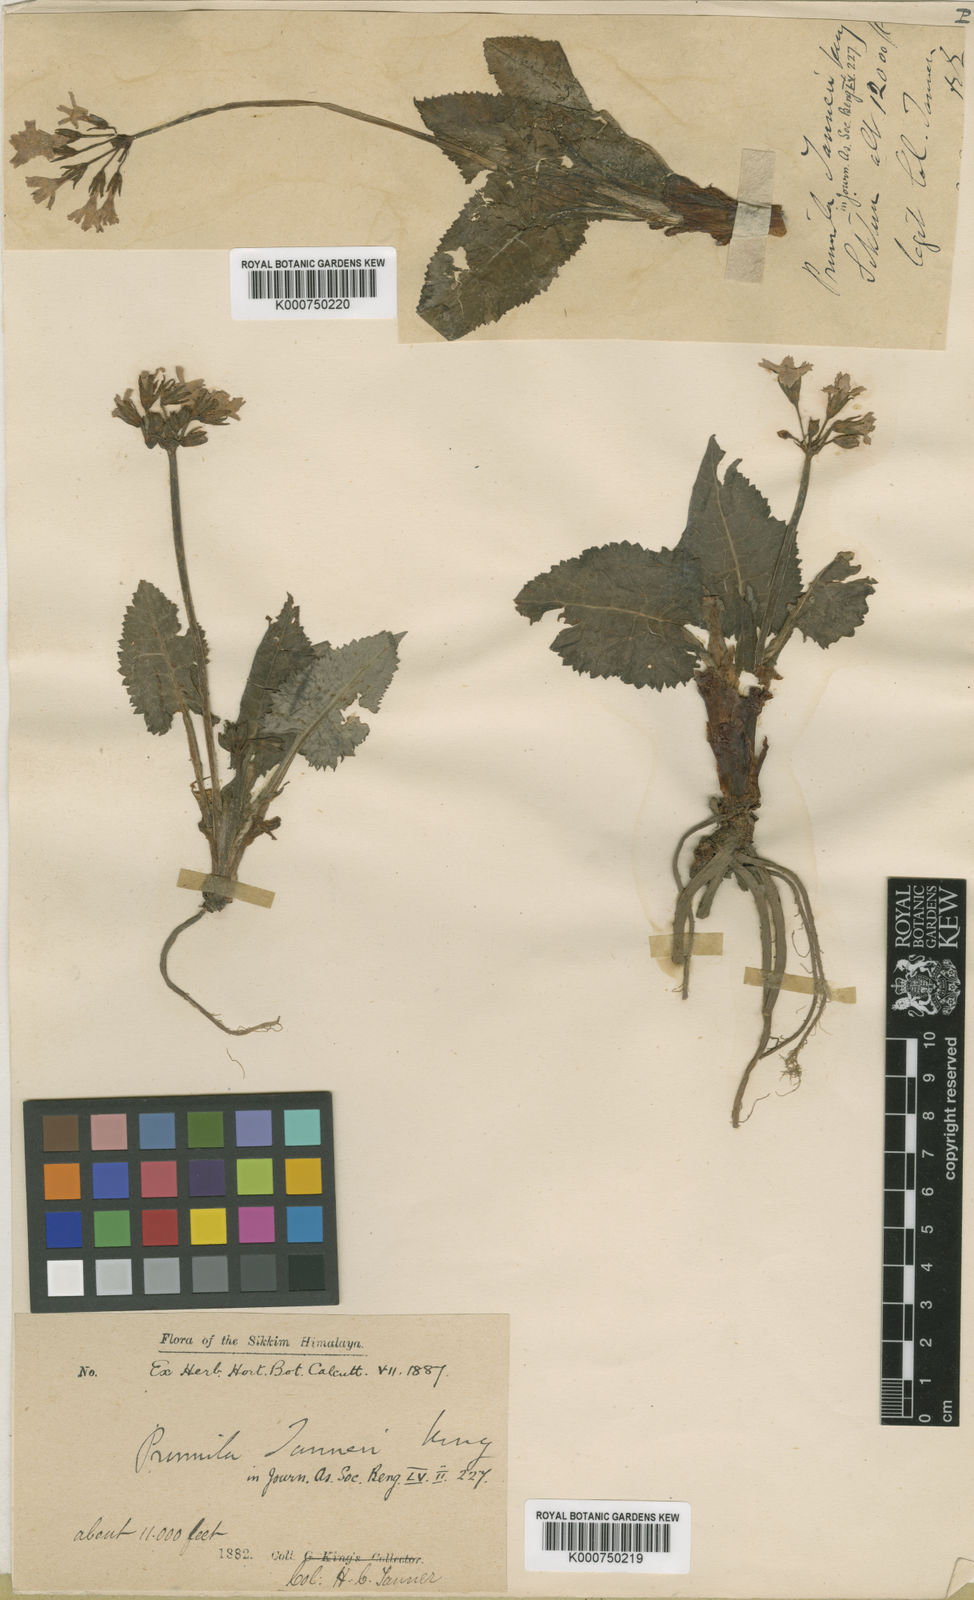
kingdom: Plantae
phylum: Tracheophyta
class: Magnoliopsida
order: Ericales
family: Primulaceae
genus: Primula
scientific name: Primula tanneri
